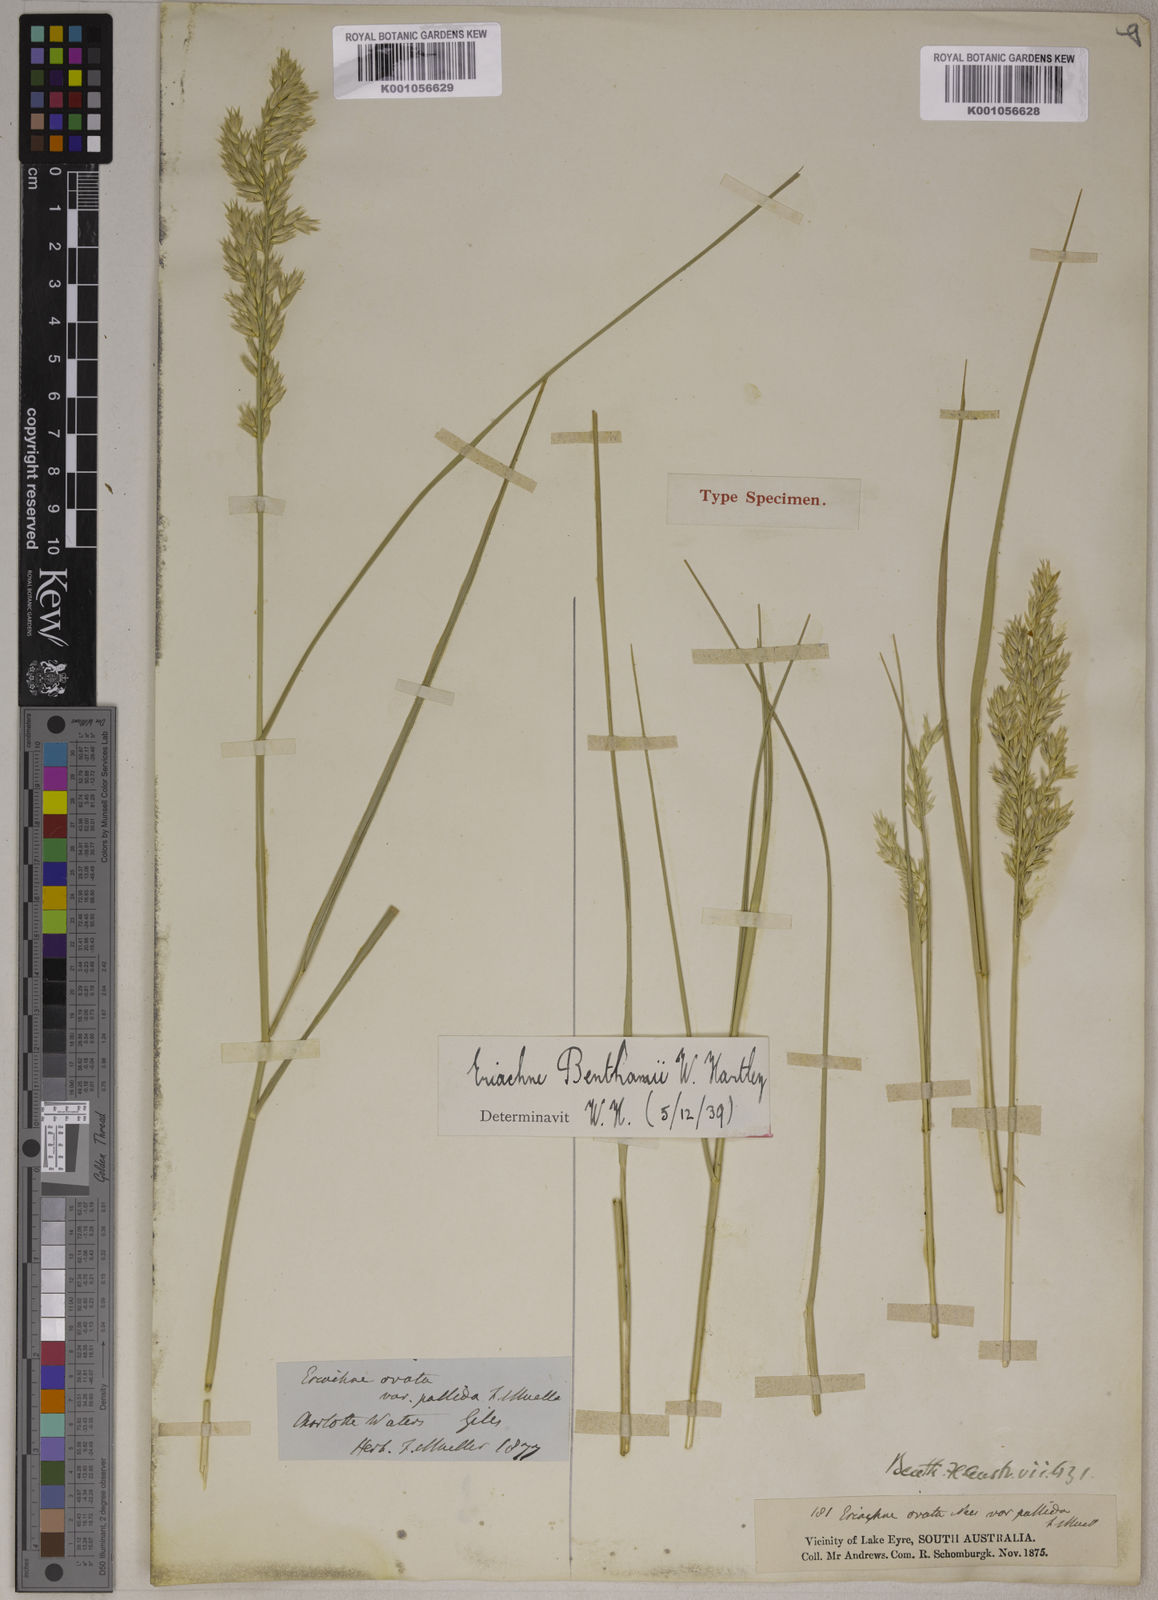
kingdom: Plantae
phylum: Tracheophyta
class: Liliopsida
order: Poales
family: Poaceae
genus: Eriachne
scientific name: Eriachne benthamii
